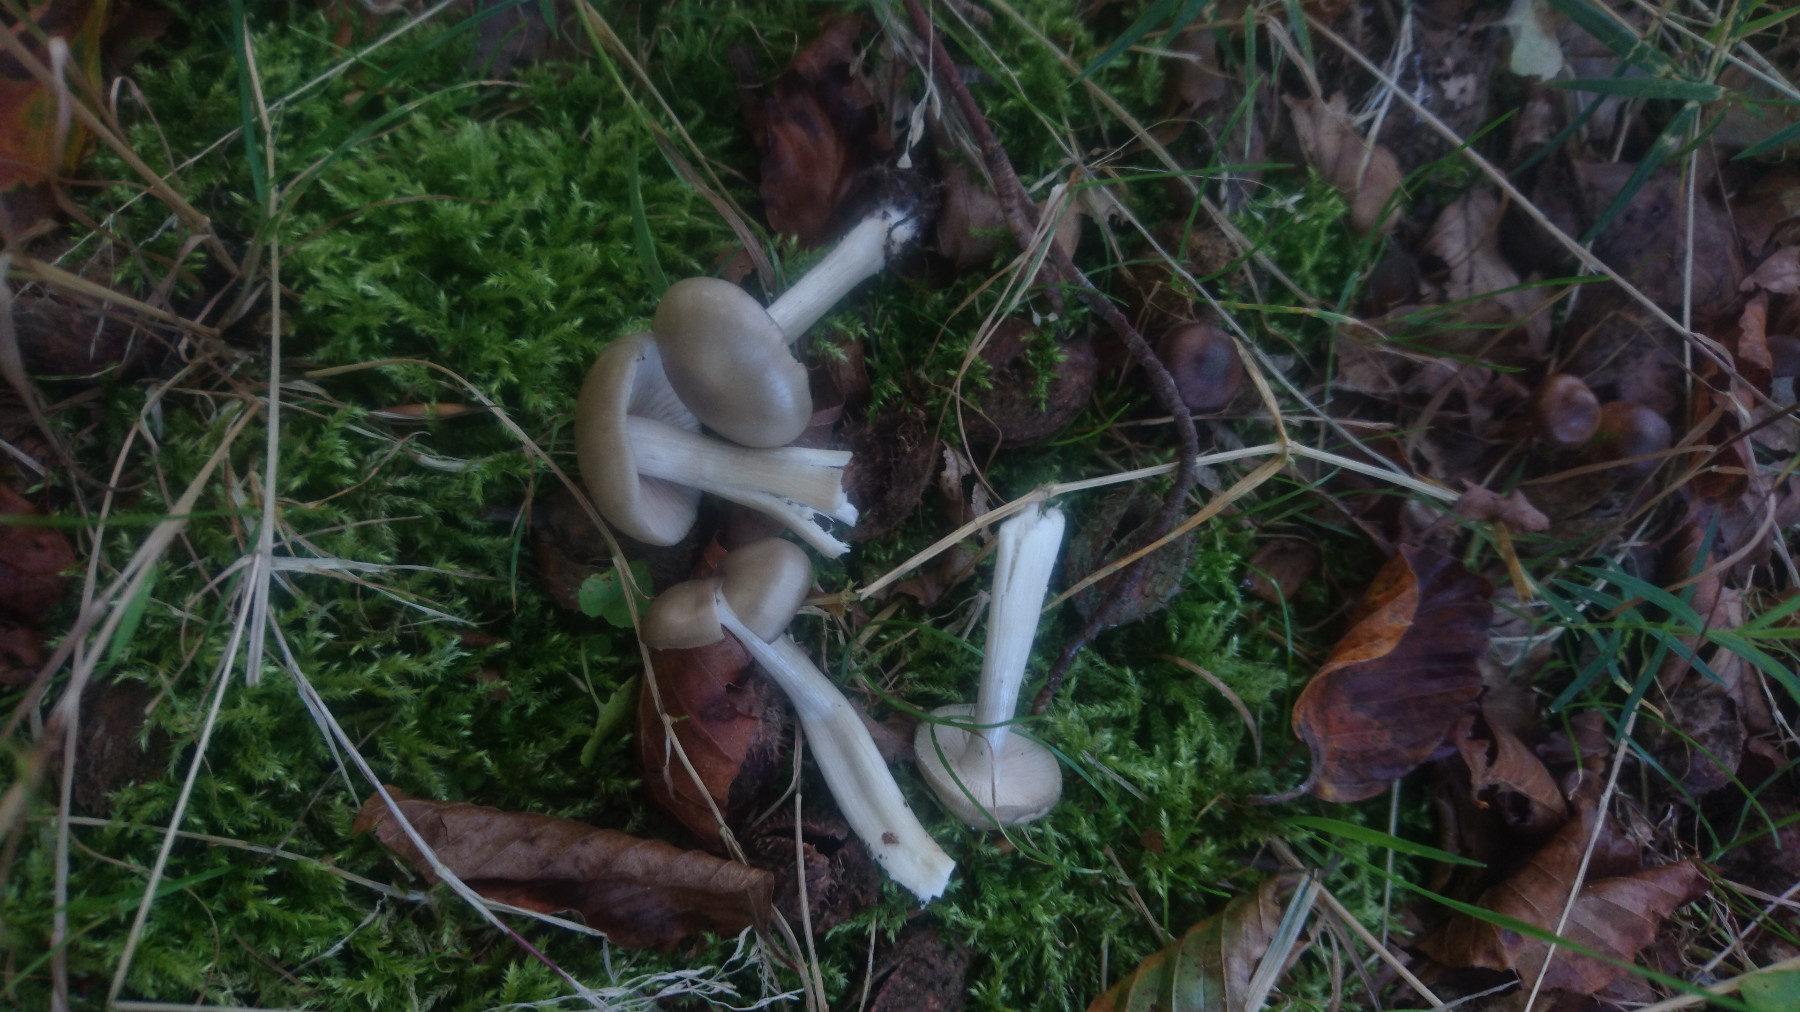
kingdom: Fungi
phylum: Basidiomycota
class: Agaricomycetes
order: Agaricales
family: Entolomataceae
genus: Entoloma
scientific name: Entoloma
